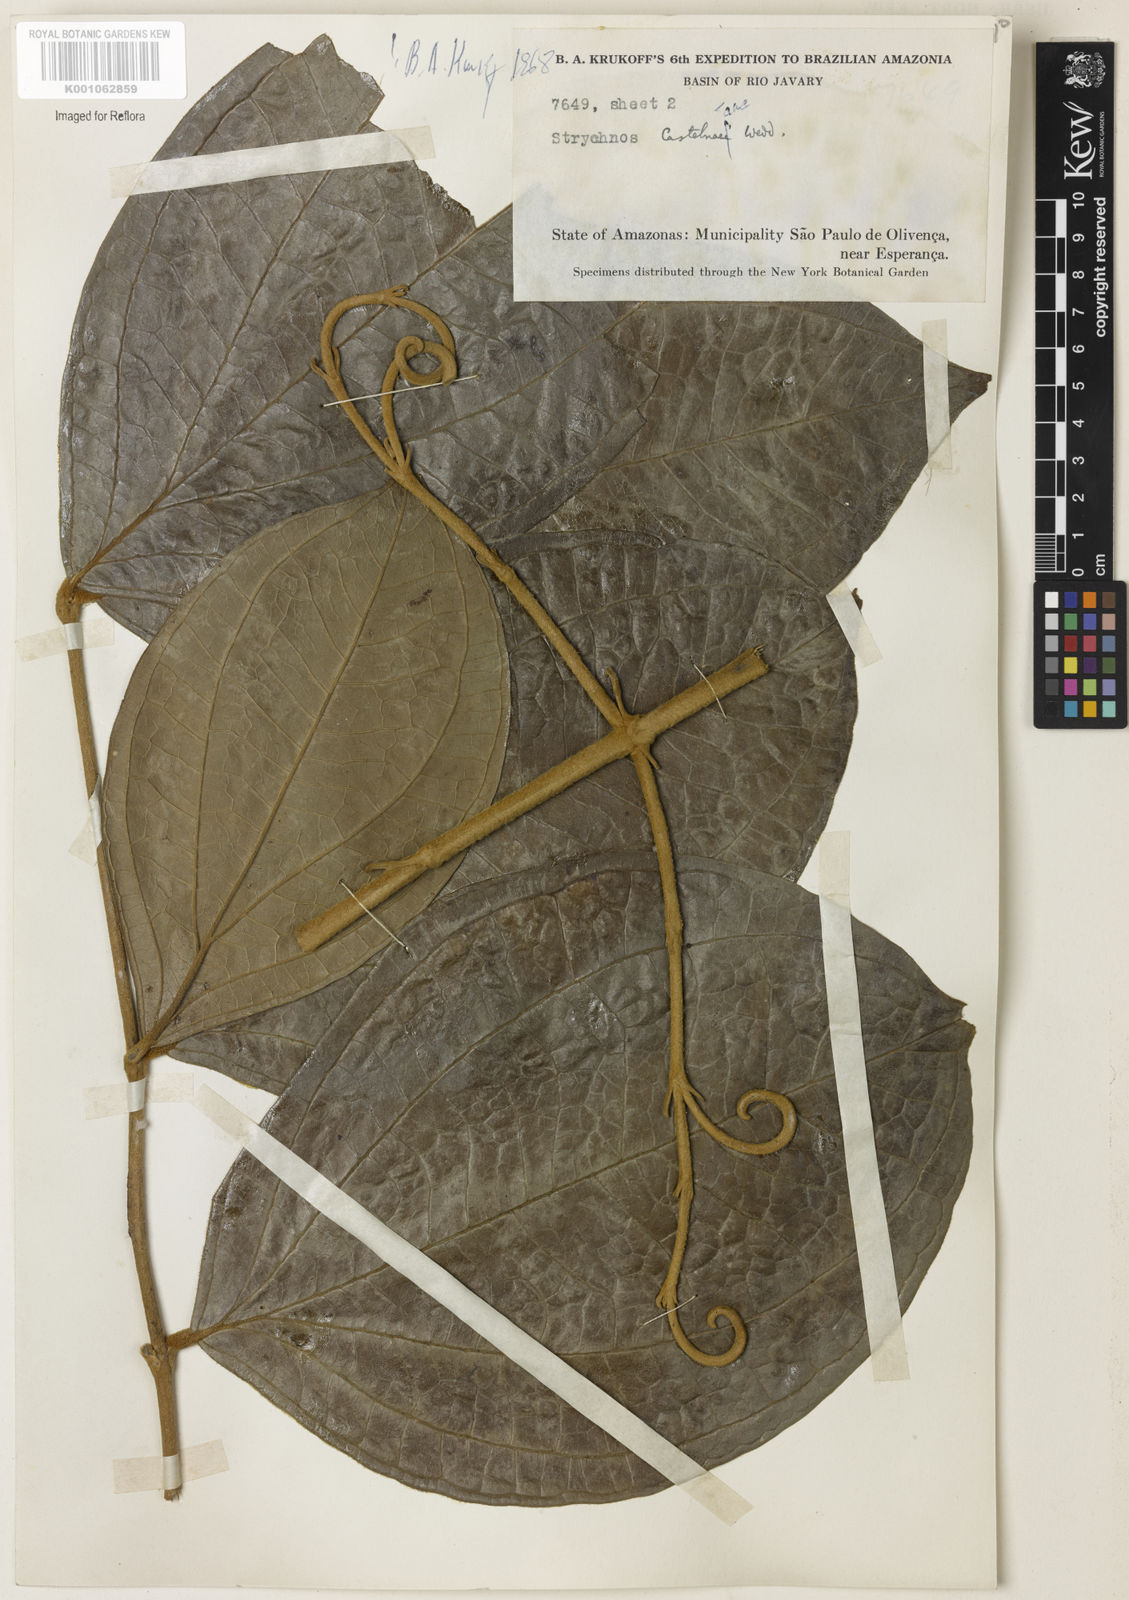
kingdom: Plantae
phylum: Tracheophyta
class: Magnoliopsida
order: Gentianales
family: Loganiaceae
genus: Strychnos
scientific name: Strychnos
